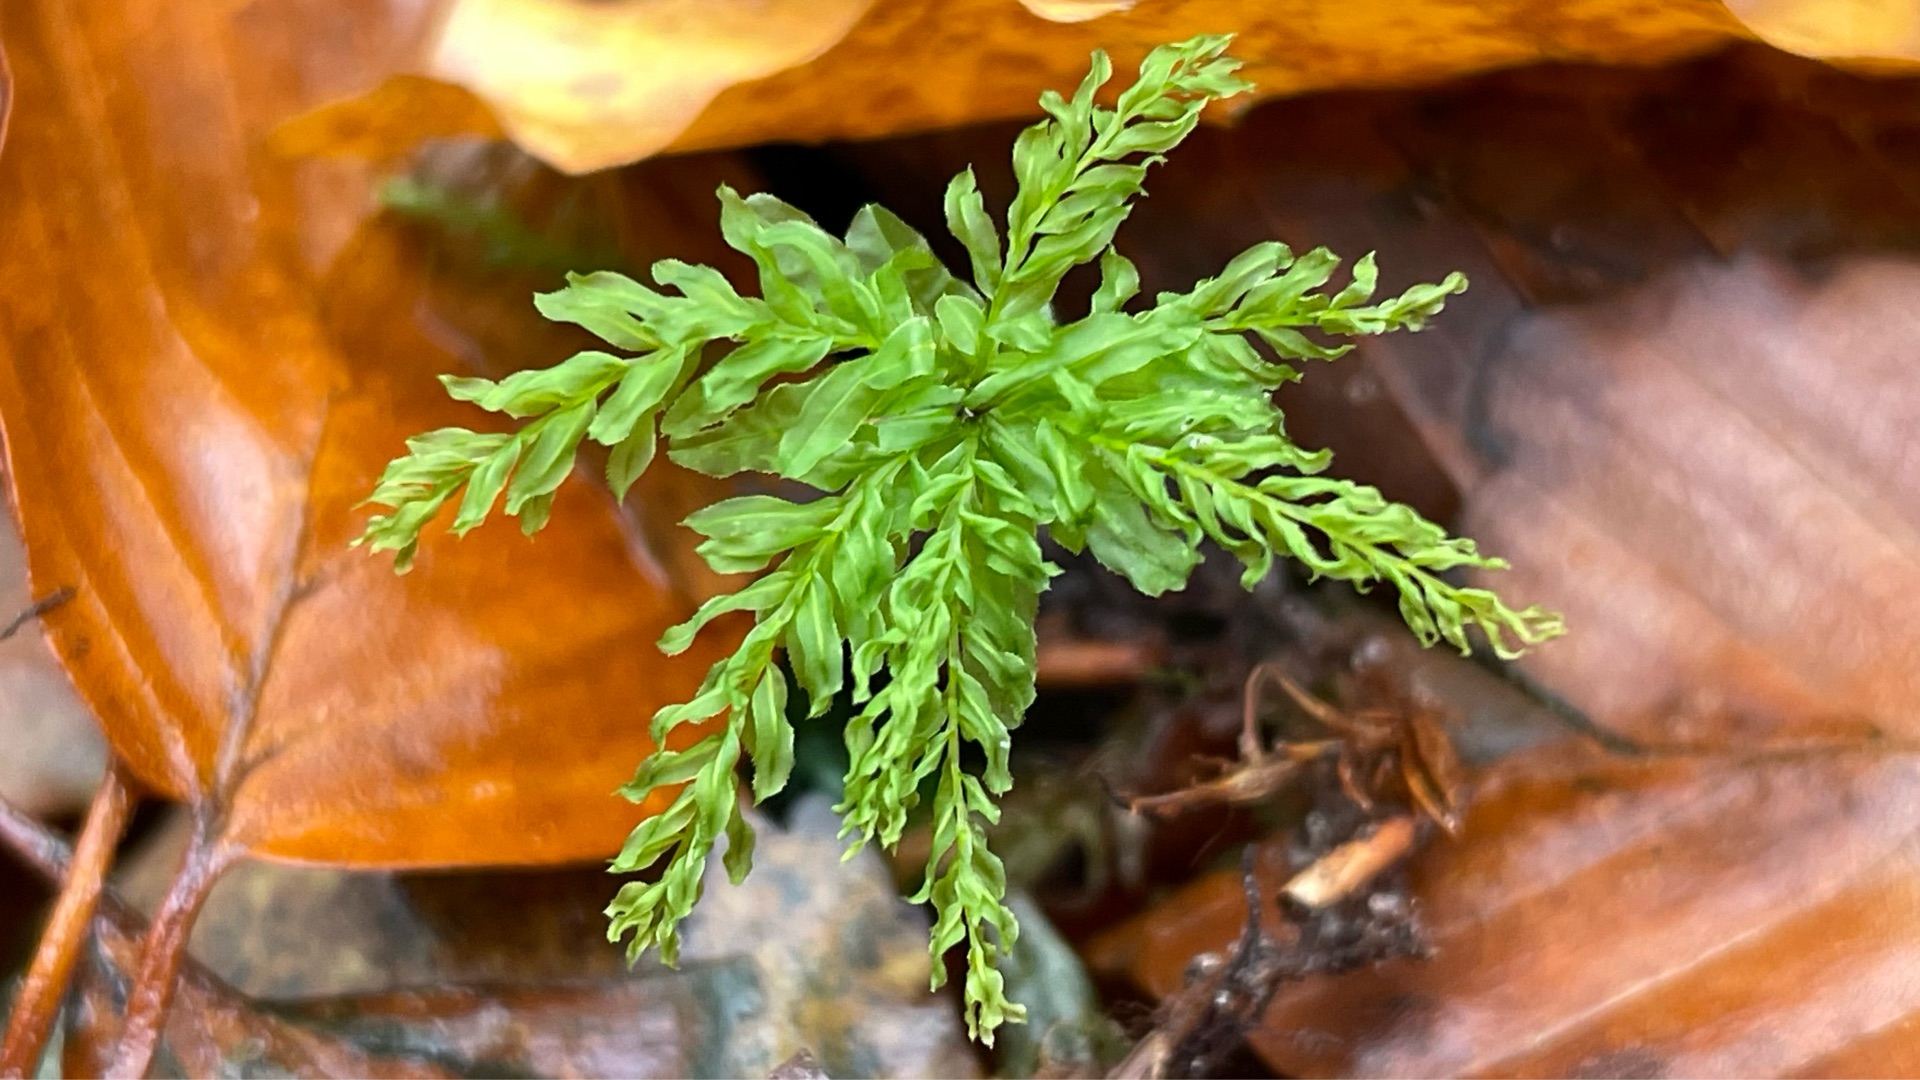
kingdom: Plantae
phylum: Bryophyta
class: Bryopsida
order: Bryales
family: Mniaceae
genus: Plagiomnium
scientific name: Plagiomnium undulatum
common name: Bølget krybstjerne
